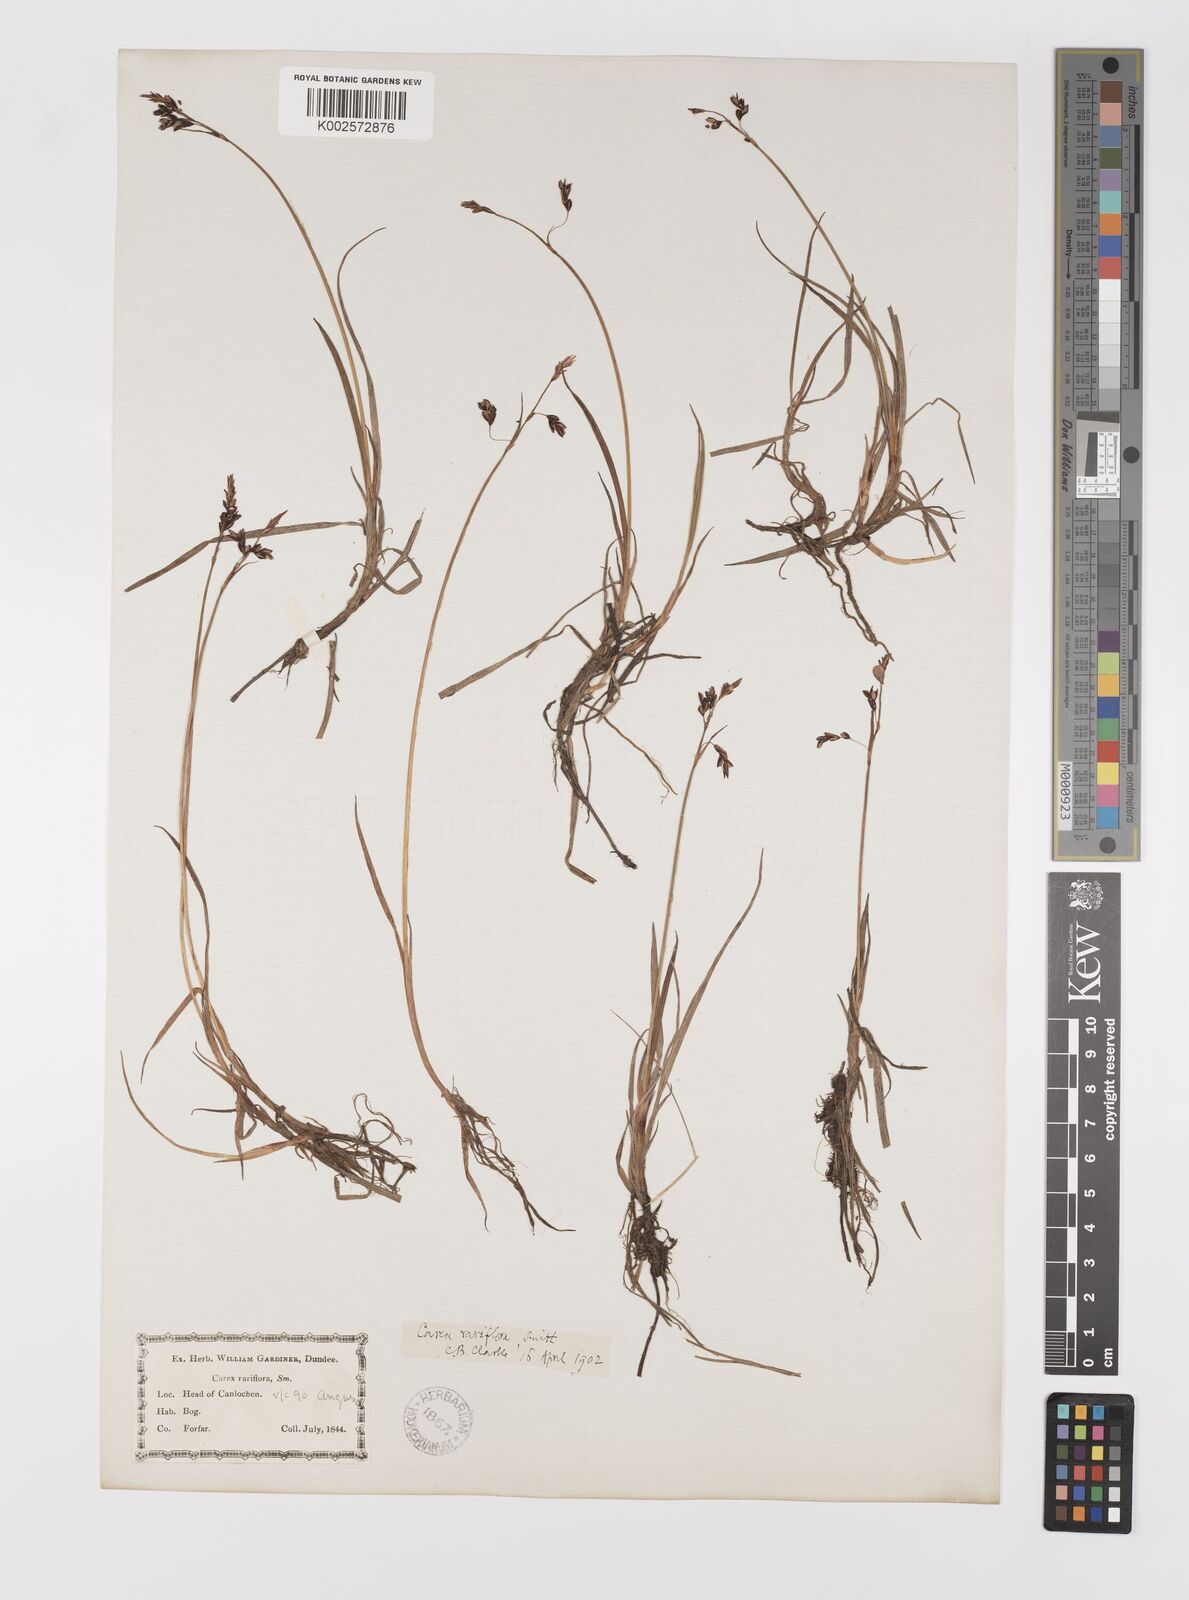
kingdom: Plantae
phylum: Tracheophyta
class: Liliopsida
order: Poales
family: Cyperaceae
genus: Carex
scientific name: Carex rariflora
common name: Loose-flowered alpine sedge
